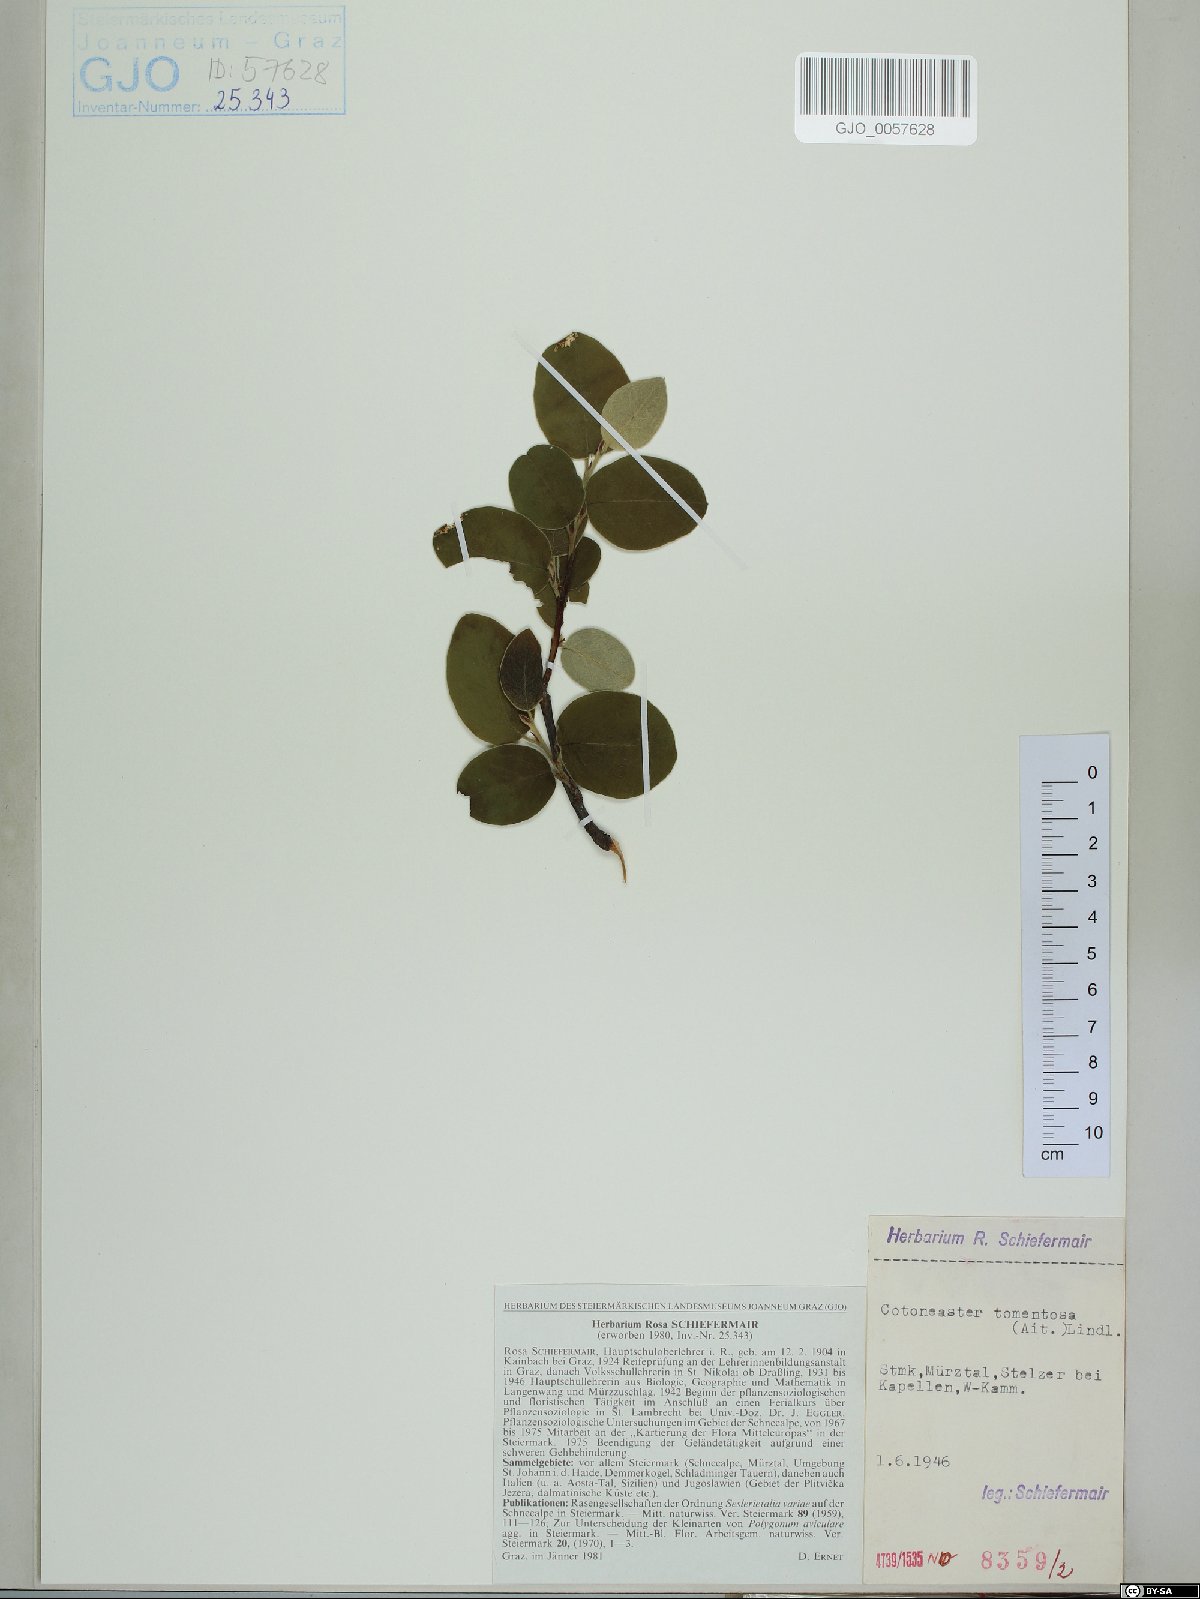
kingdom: Plantae
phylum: Tracheophyta
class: Magnoliopsida
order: Rosales
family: Rosaceae
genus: Cotoneaster
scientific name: Cotoneaster tomentosus
